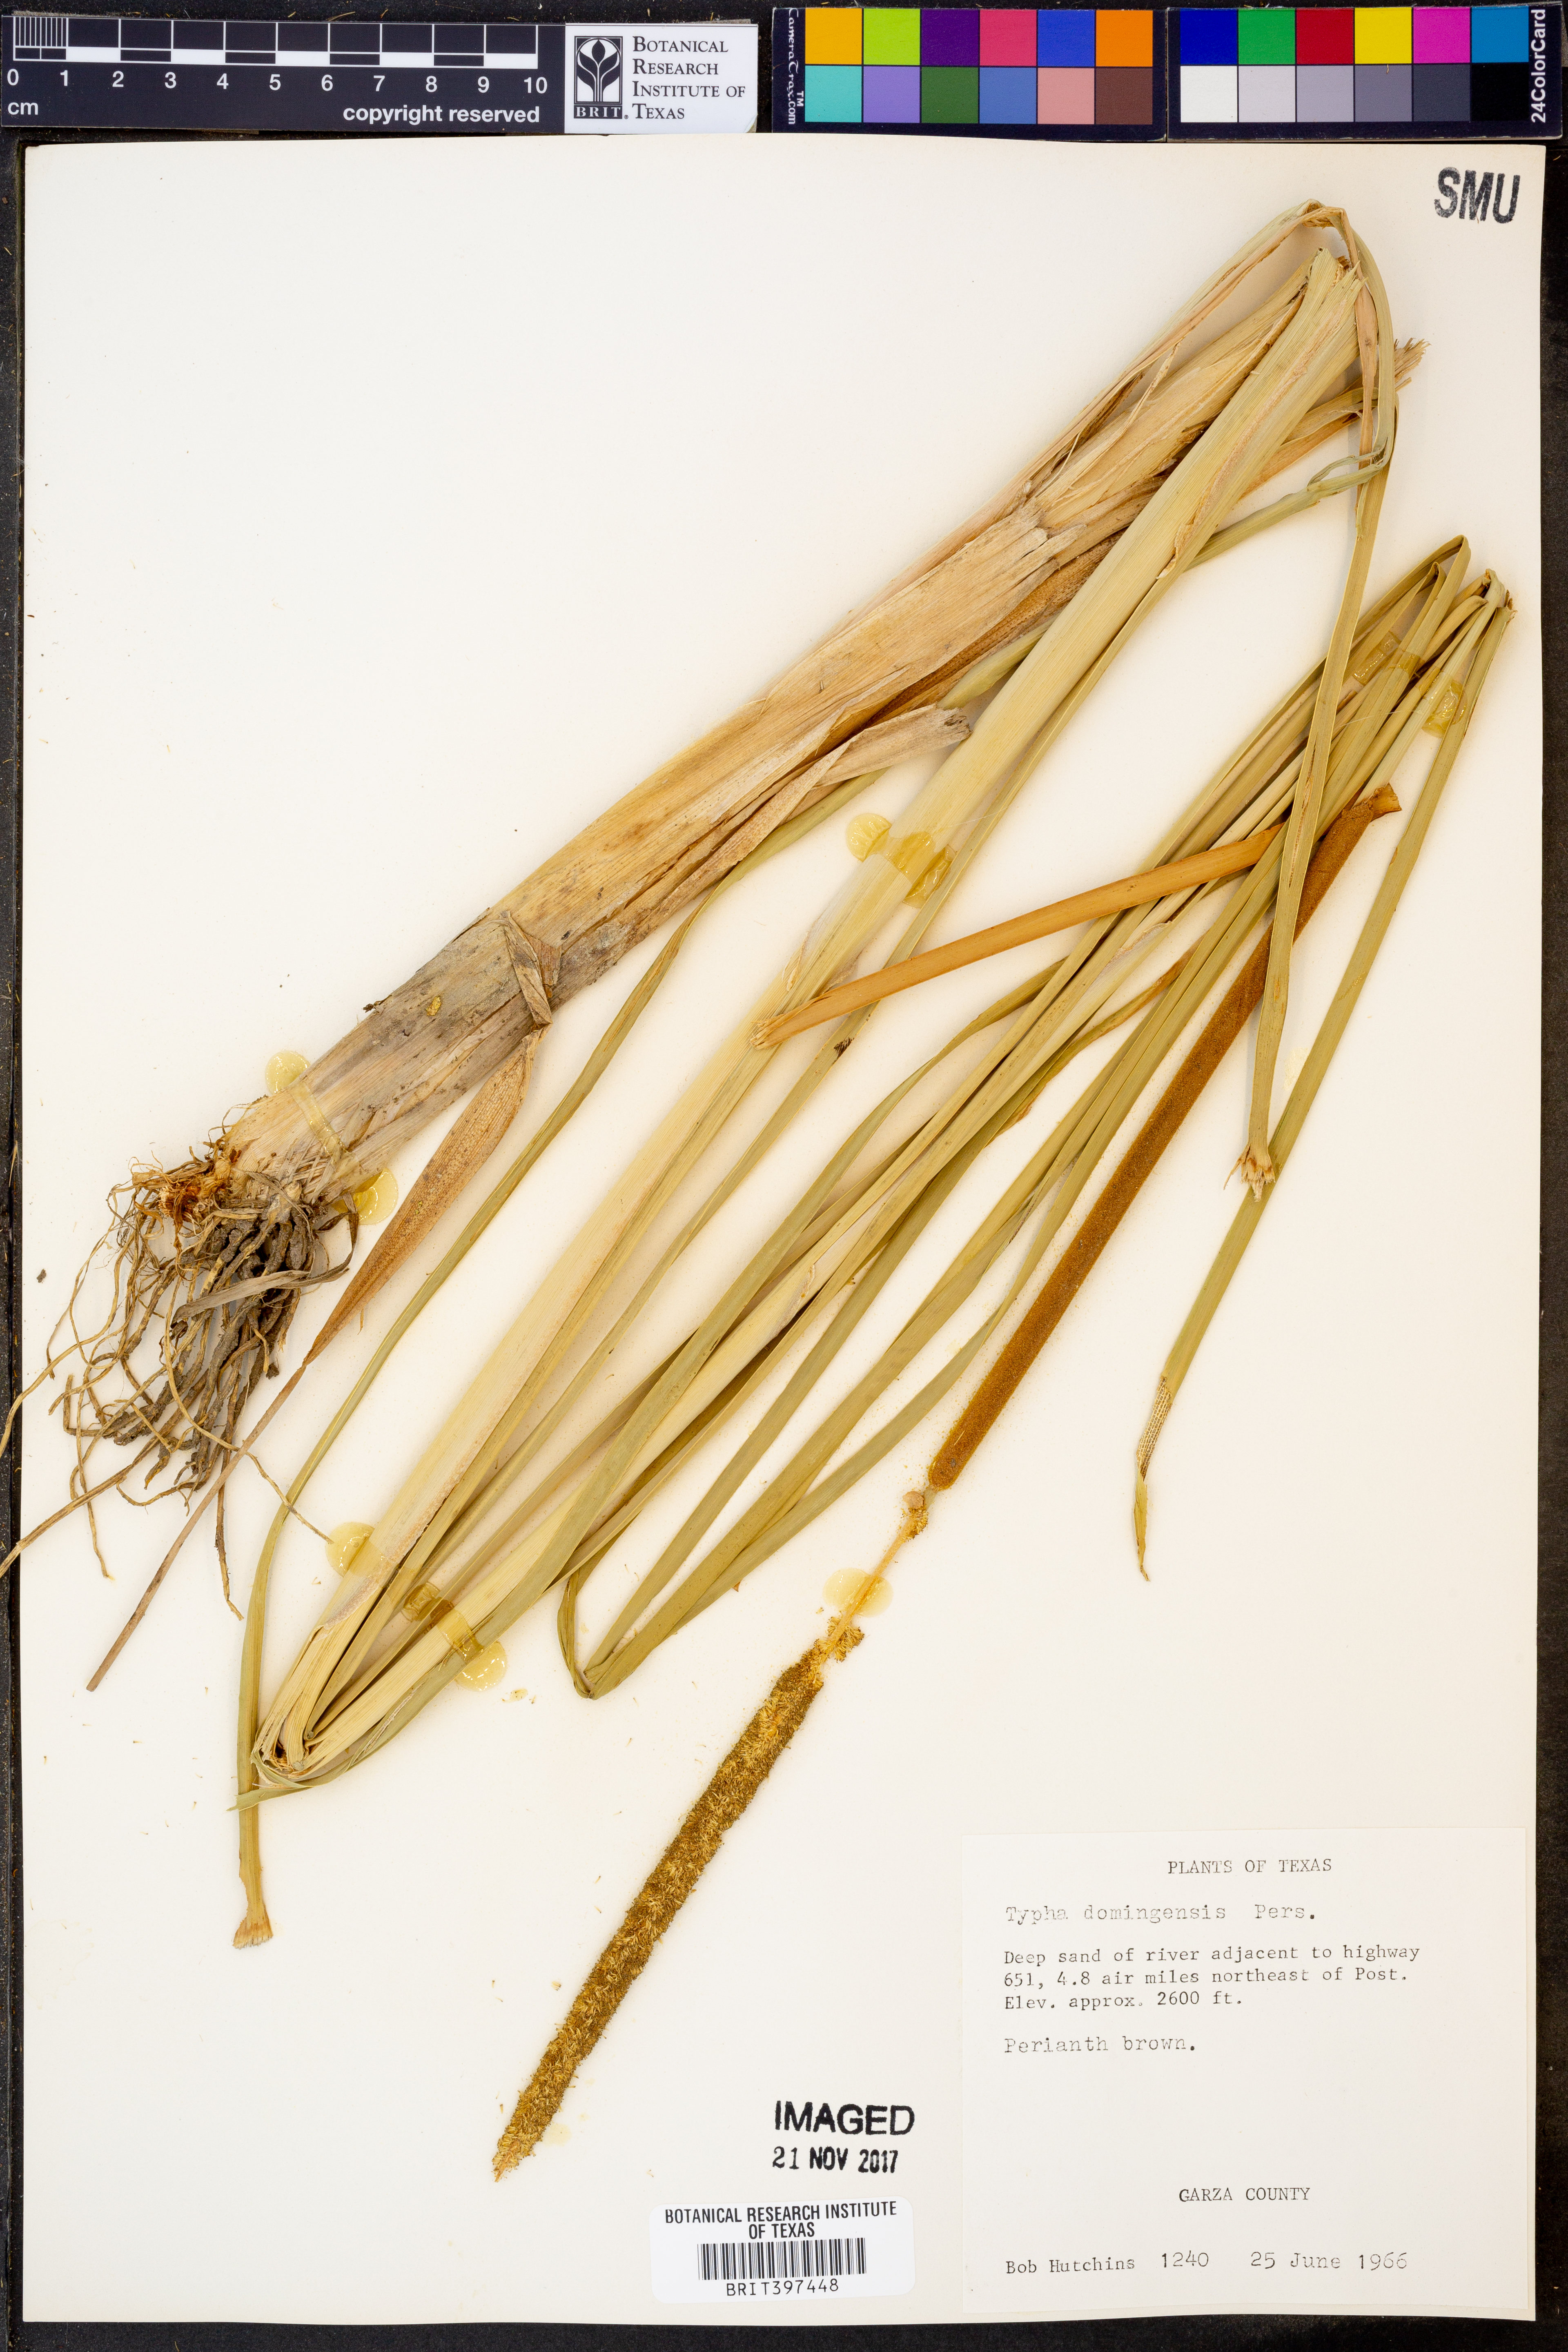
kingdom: Plantae
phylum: Tracheophyta
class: Liliopsida
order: Poales
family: Typhaceae
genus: Typha
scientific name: Typha domingensis
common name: Southern cattail
